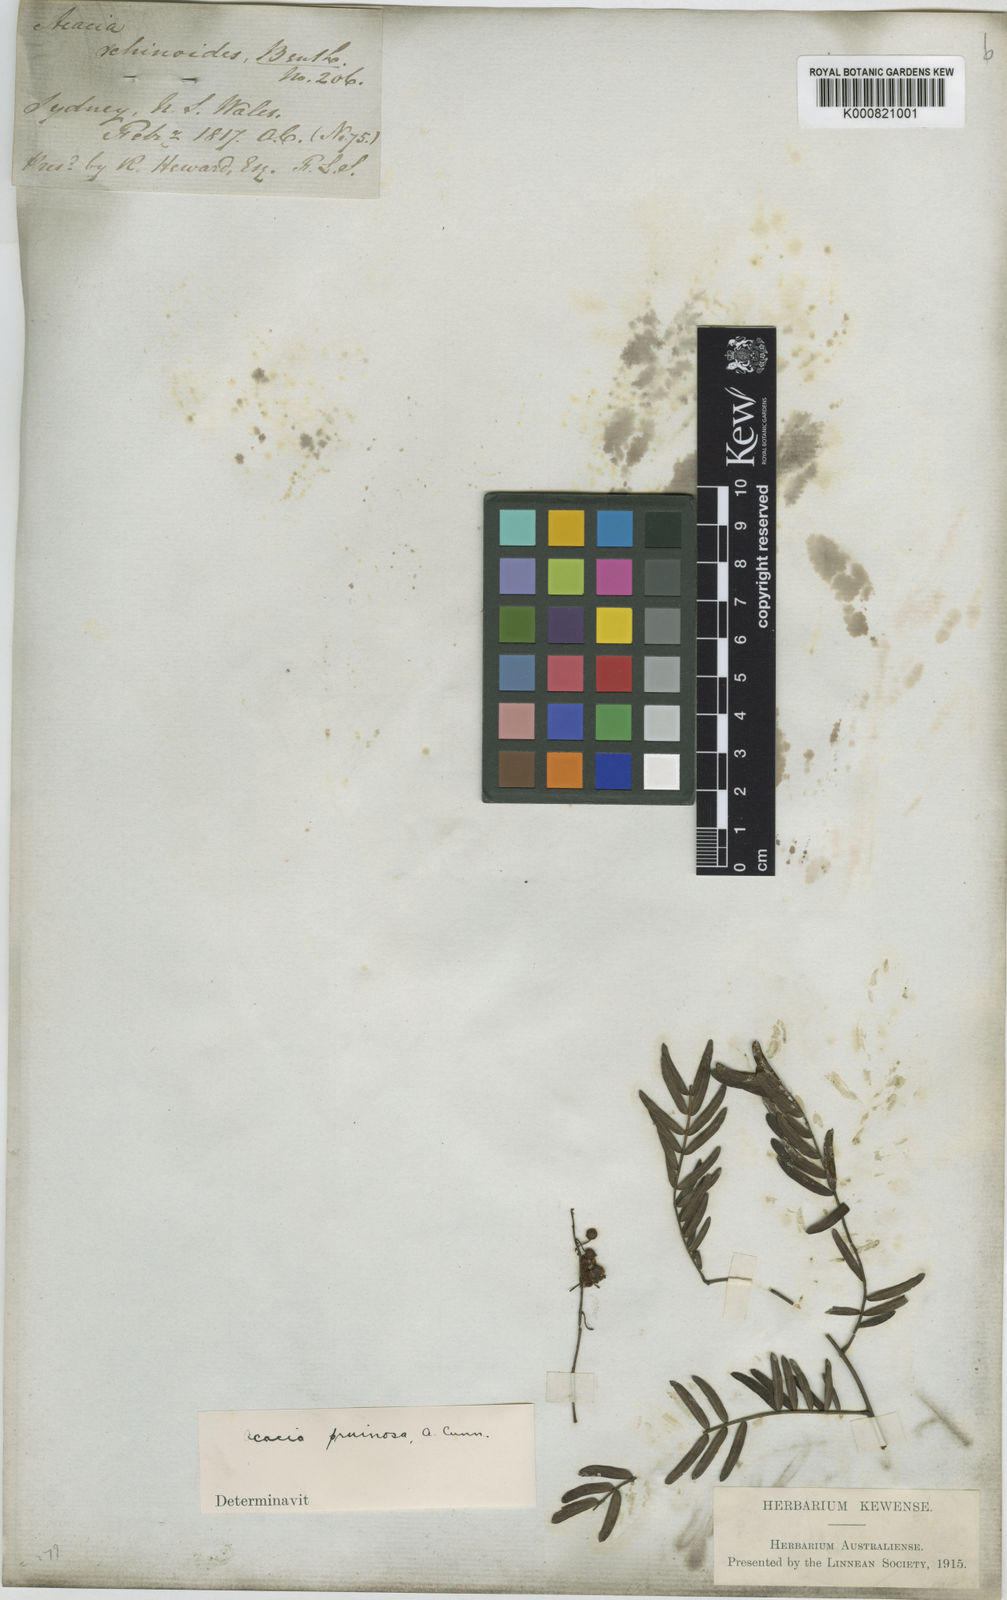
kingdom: Plantae
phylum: Tracheophyta
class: Magnoliopsida
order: Fabales
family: Fabaceae
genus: Acacia
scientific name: Acacia schinoides
